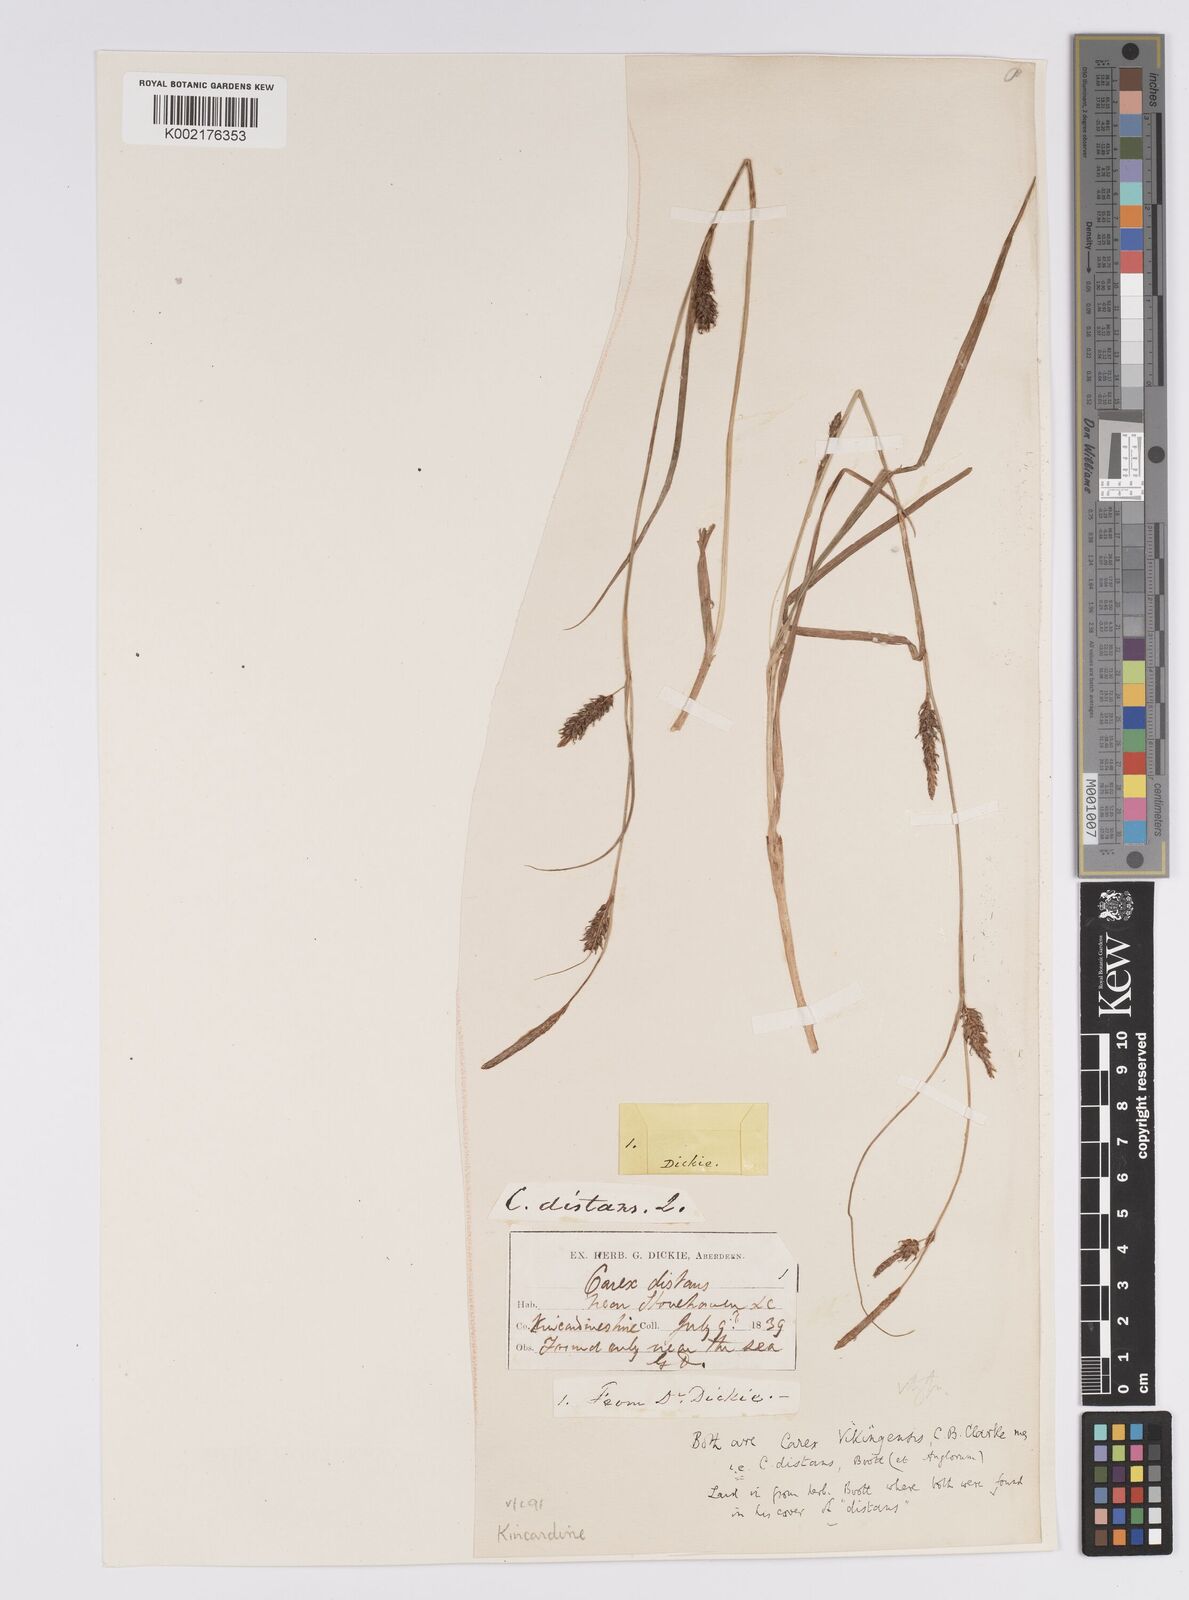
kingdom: Plantae
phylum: Tracheophyta
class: Liliopsida
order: Poales
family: Cyperaceae
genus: Carex
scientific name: Carex distans
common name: Distant sedge
